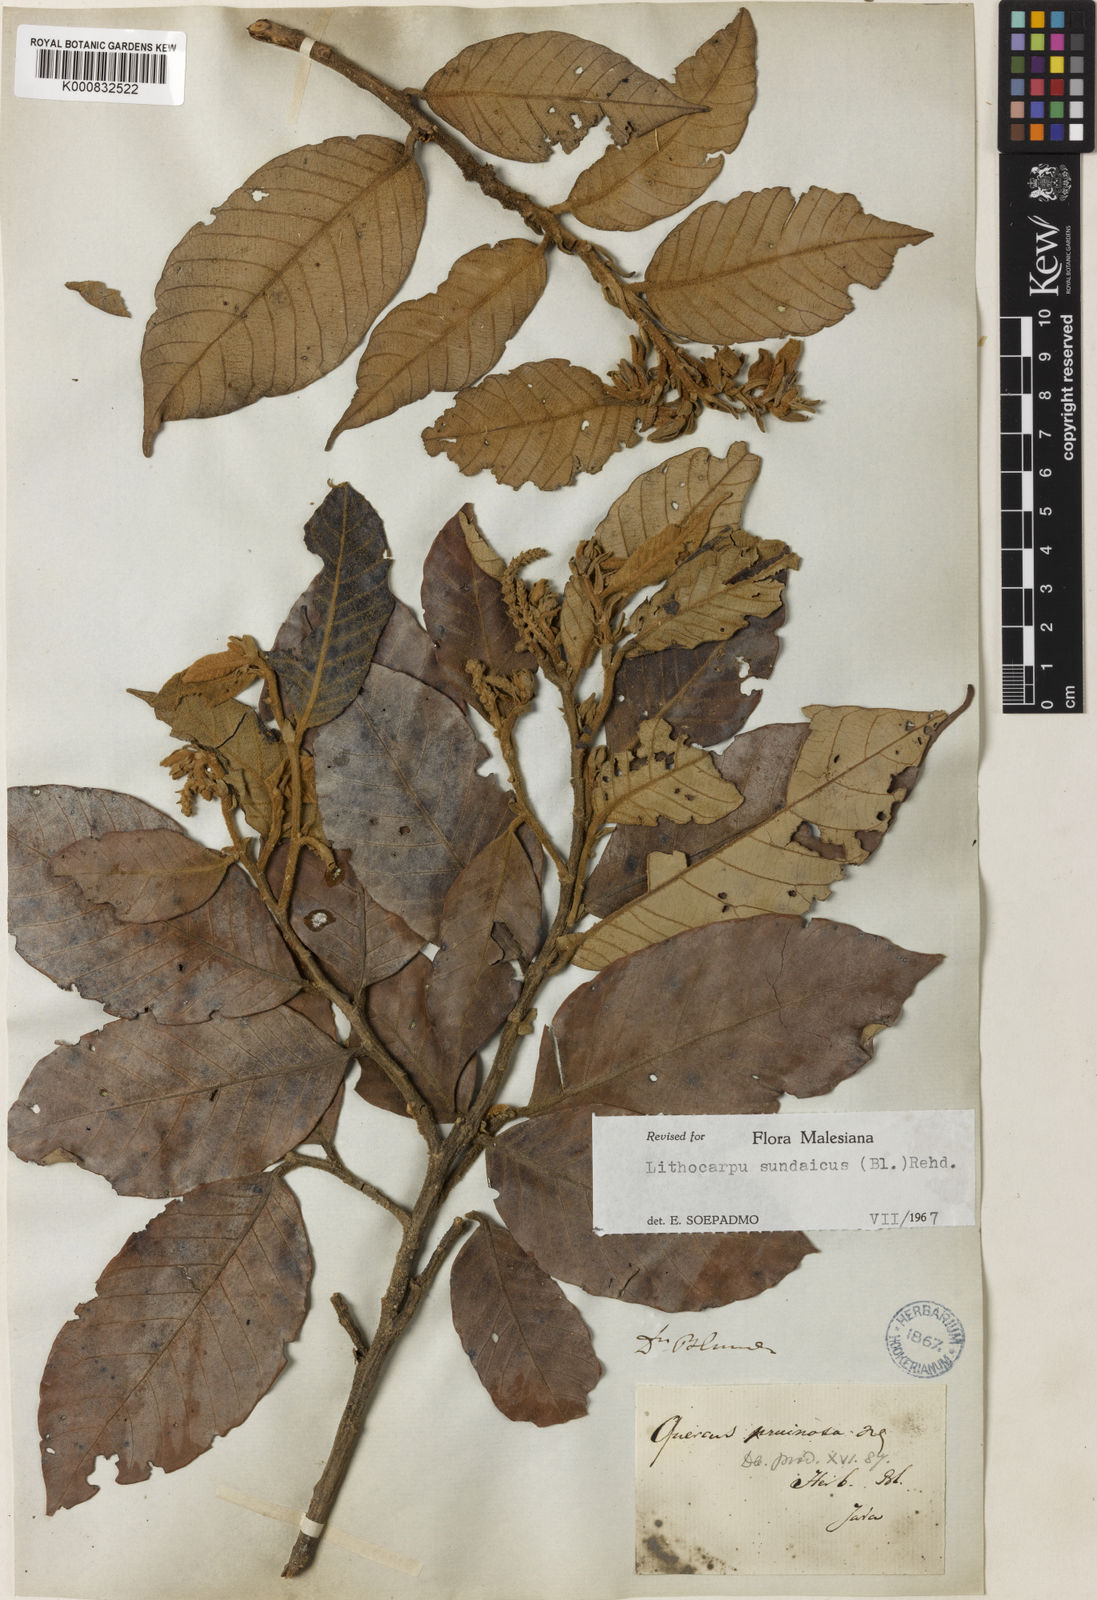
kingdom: Plantae
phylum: Tracheophyta
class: Magnoliopsida
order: Fagales
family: Fagaceae
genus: Lithocarpus
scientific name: Lithocarpus sundaicus
